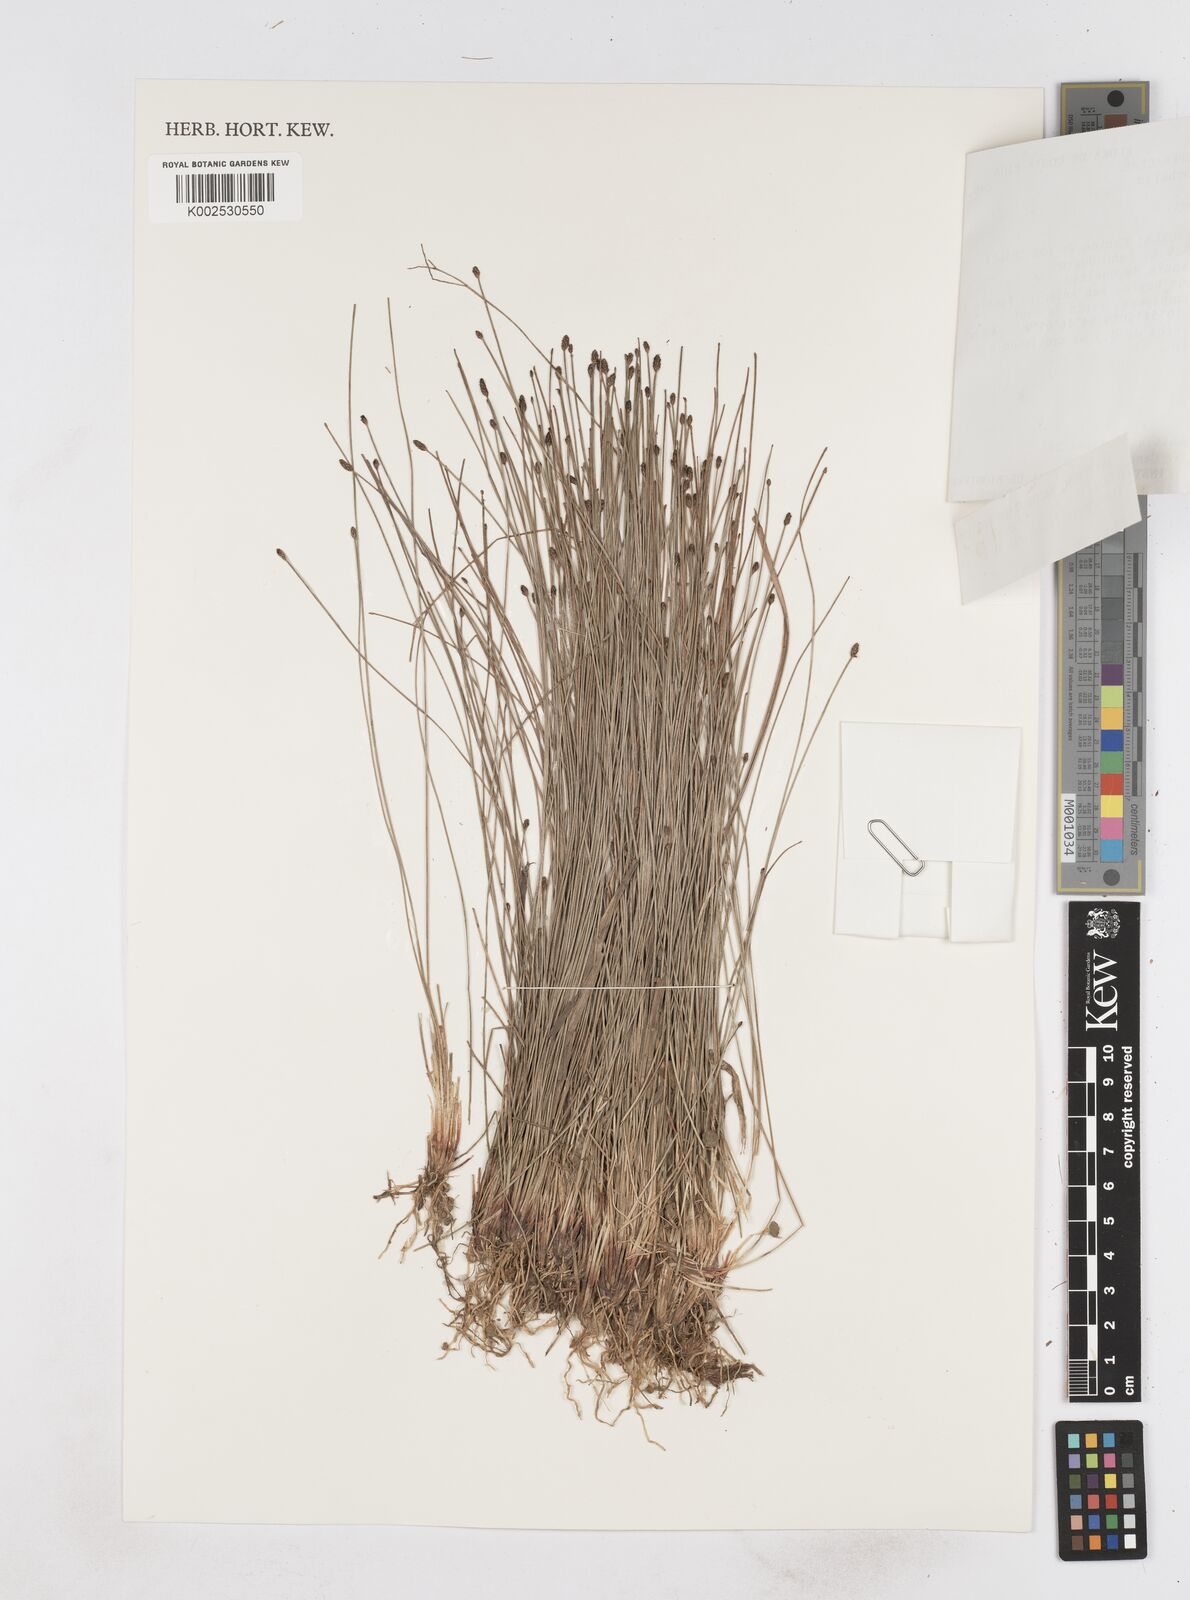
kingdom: Plantae
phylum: Tracheophyta
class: Liliopsida
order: Poales
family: Cyperaceae
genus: Eleocharis
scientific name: Eleocharis filiculmis
